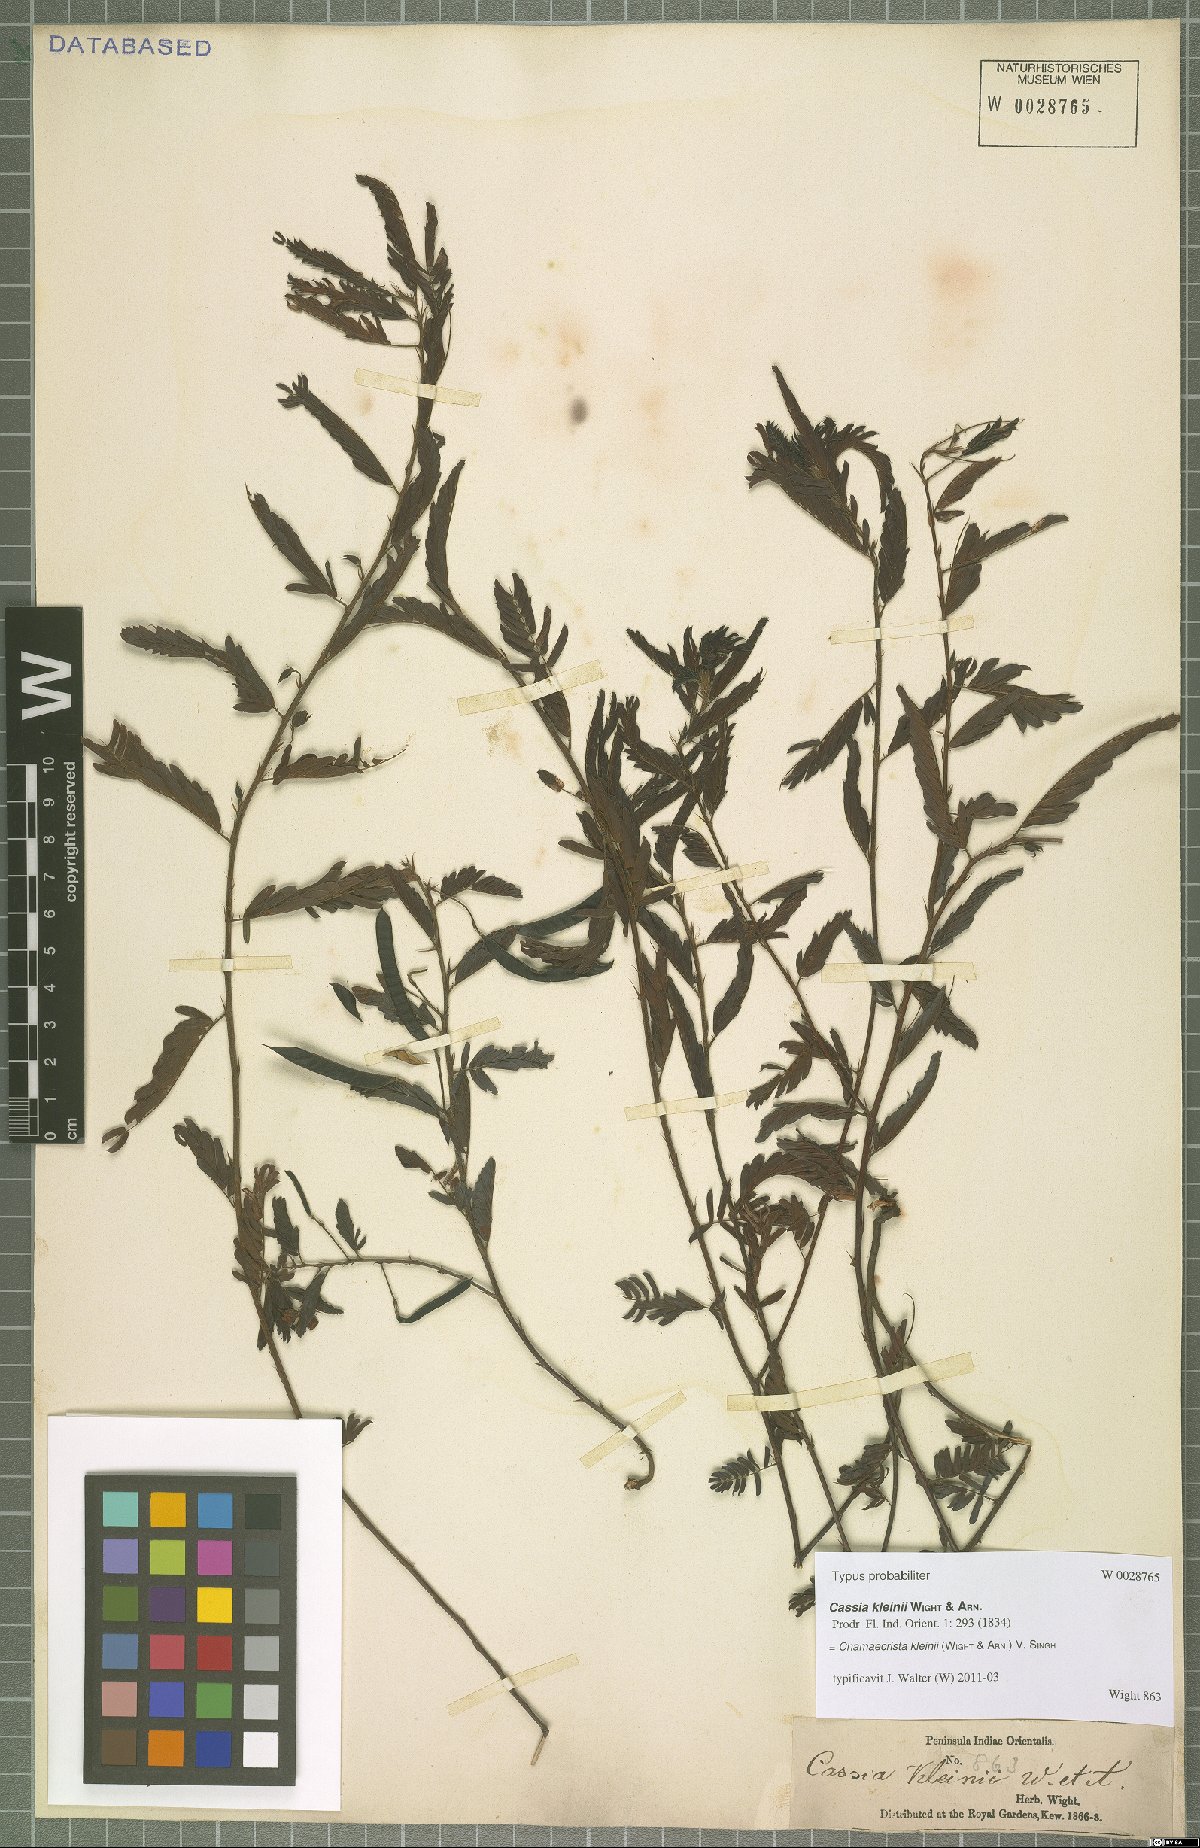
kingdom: Plantae
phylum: Tracheophyta
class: Magnoliopsida
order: Fabales
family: Fabaceae
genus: Chamaecrista
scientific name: Chamaecrista kleinii
